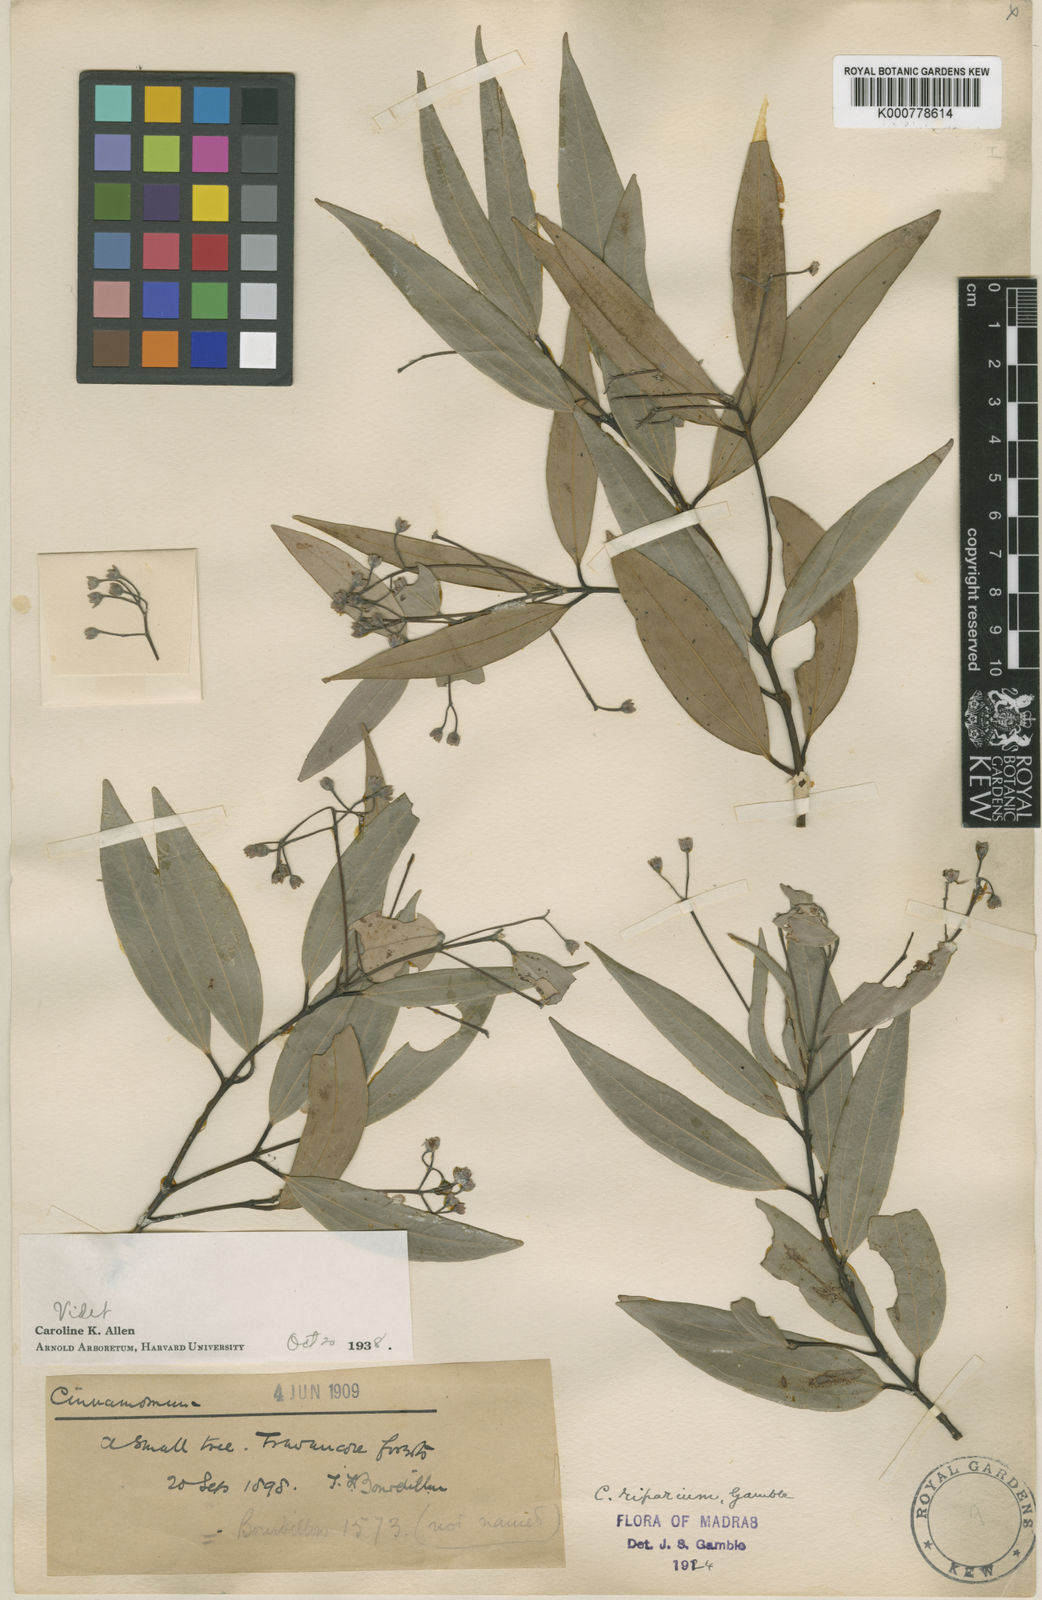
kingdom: Plantae
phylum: Tracheophyta
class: Magnoliopsida
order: Laurales
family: Lauraceae
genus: Cinnamomum
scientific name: Cinnamomum riparium
